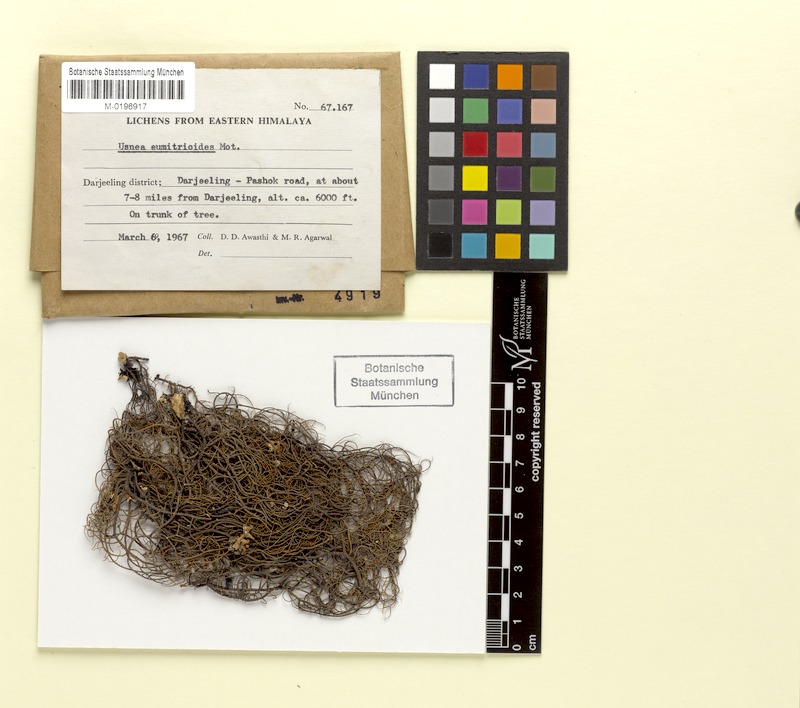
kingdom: Fungi
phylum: Ascomycota
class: Lecanoromycetes
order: Lecanorales
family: Parmeliaceae
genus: Usnea
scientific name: Usnea eumitrioides
